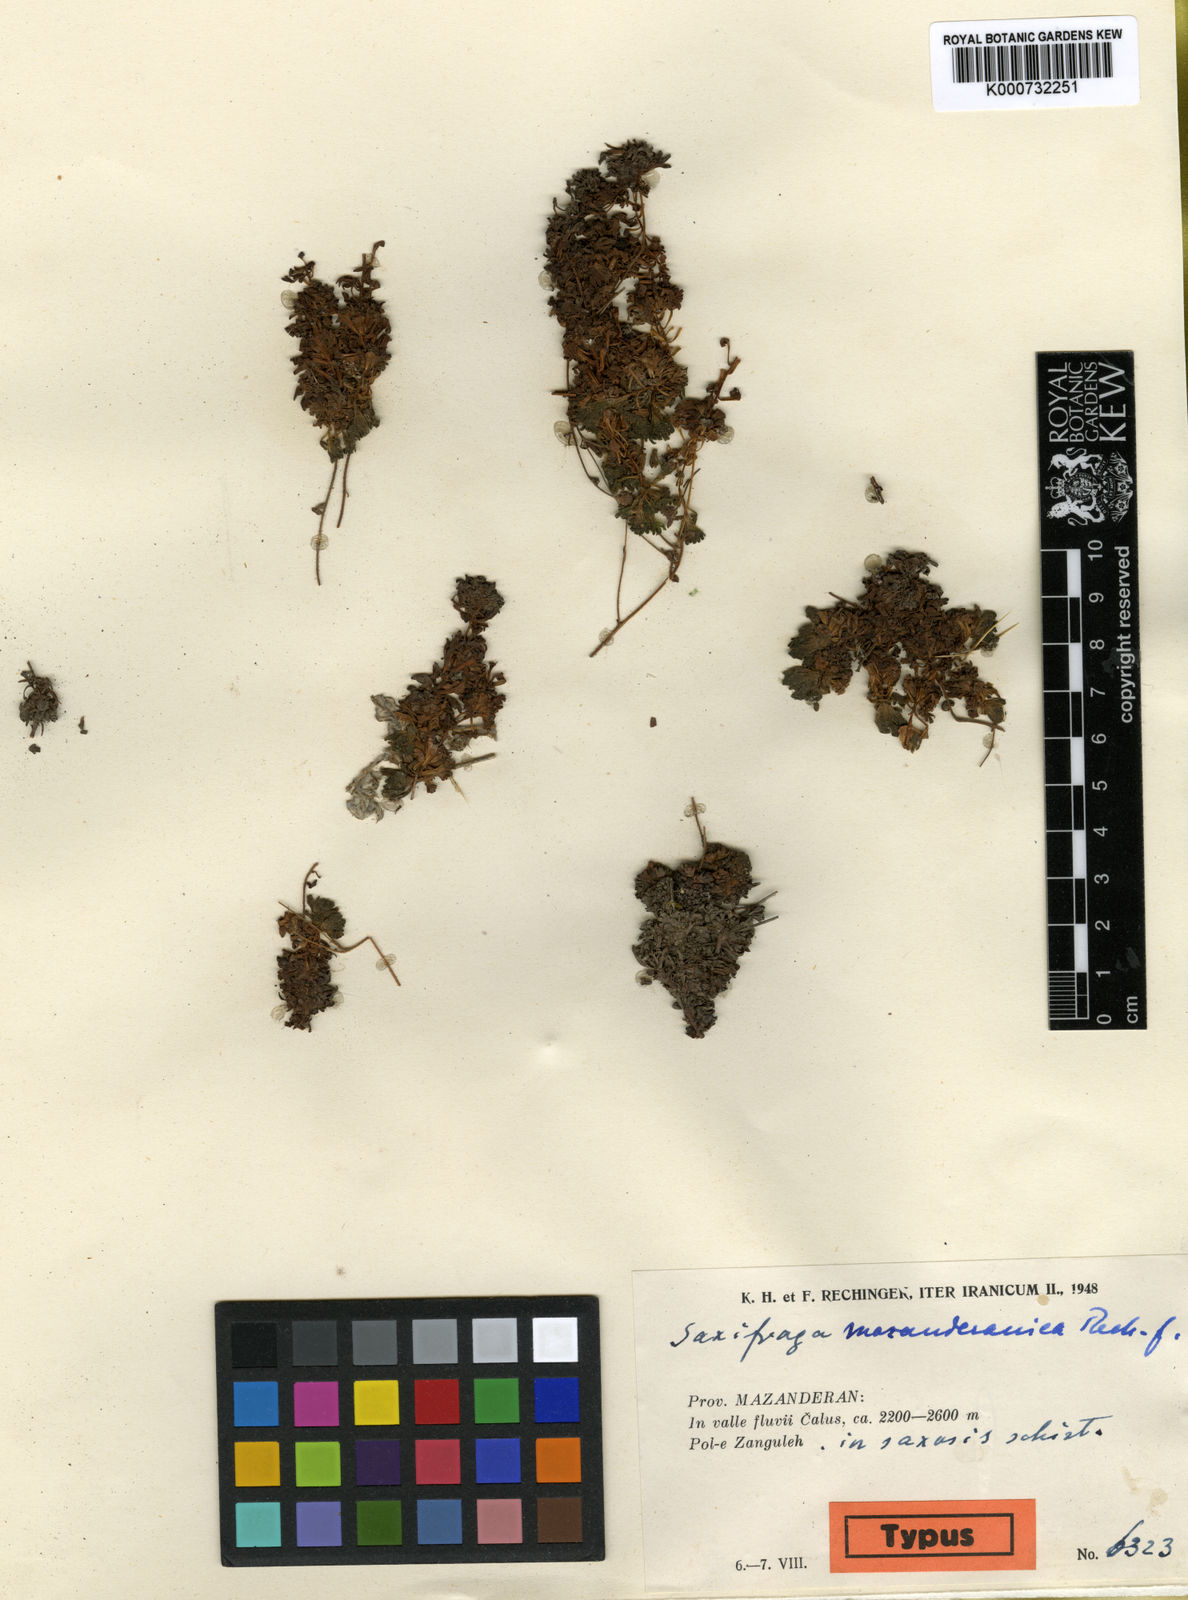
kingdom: Plantae
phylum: Tracheophyta
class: Magnoliopsida
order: Saxifragales
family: Saxifragaceae
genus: Saxifraga
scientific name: Saxifraga mazanderanica
